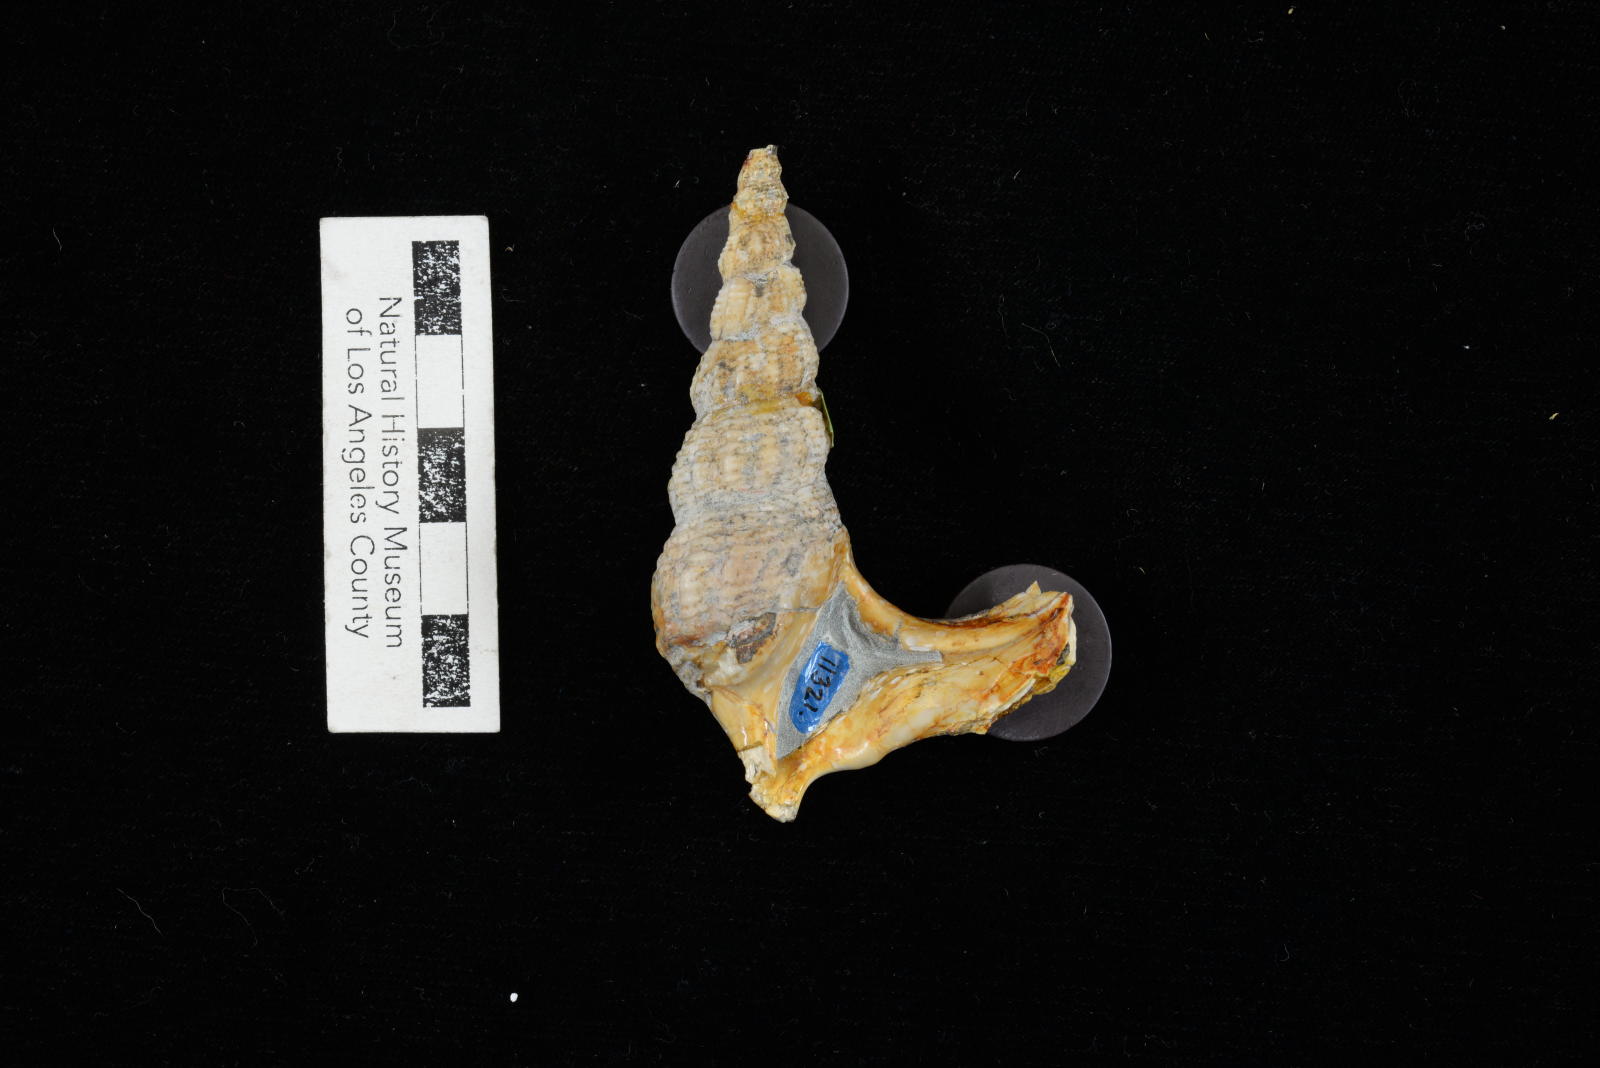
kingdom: Animalia
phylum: Mollusca
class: Gastropoda
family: Nerineidae
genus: Plesioptygmatis
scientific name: Plesioptygmatis Nerinea pseudoconvexa
